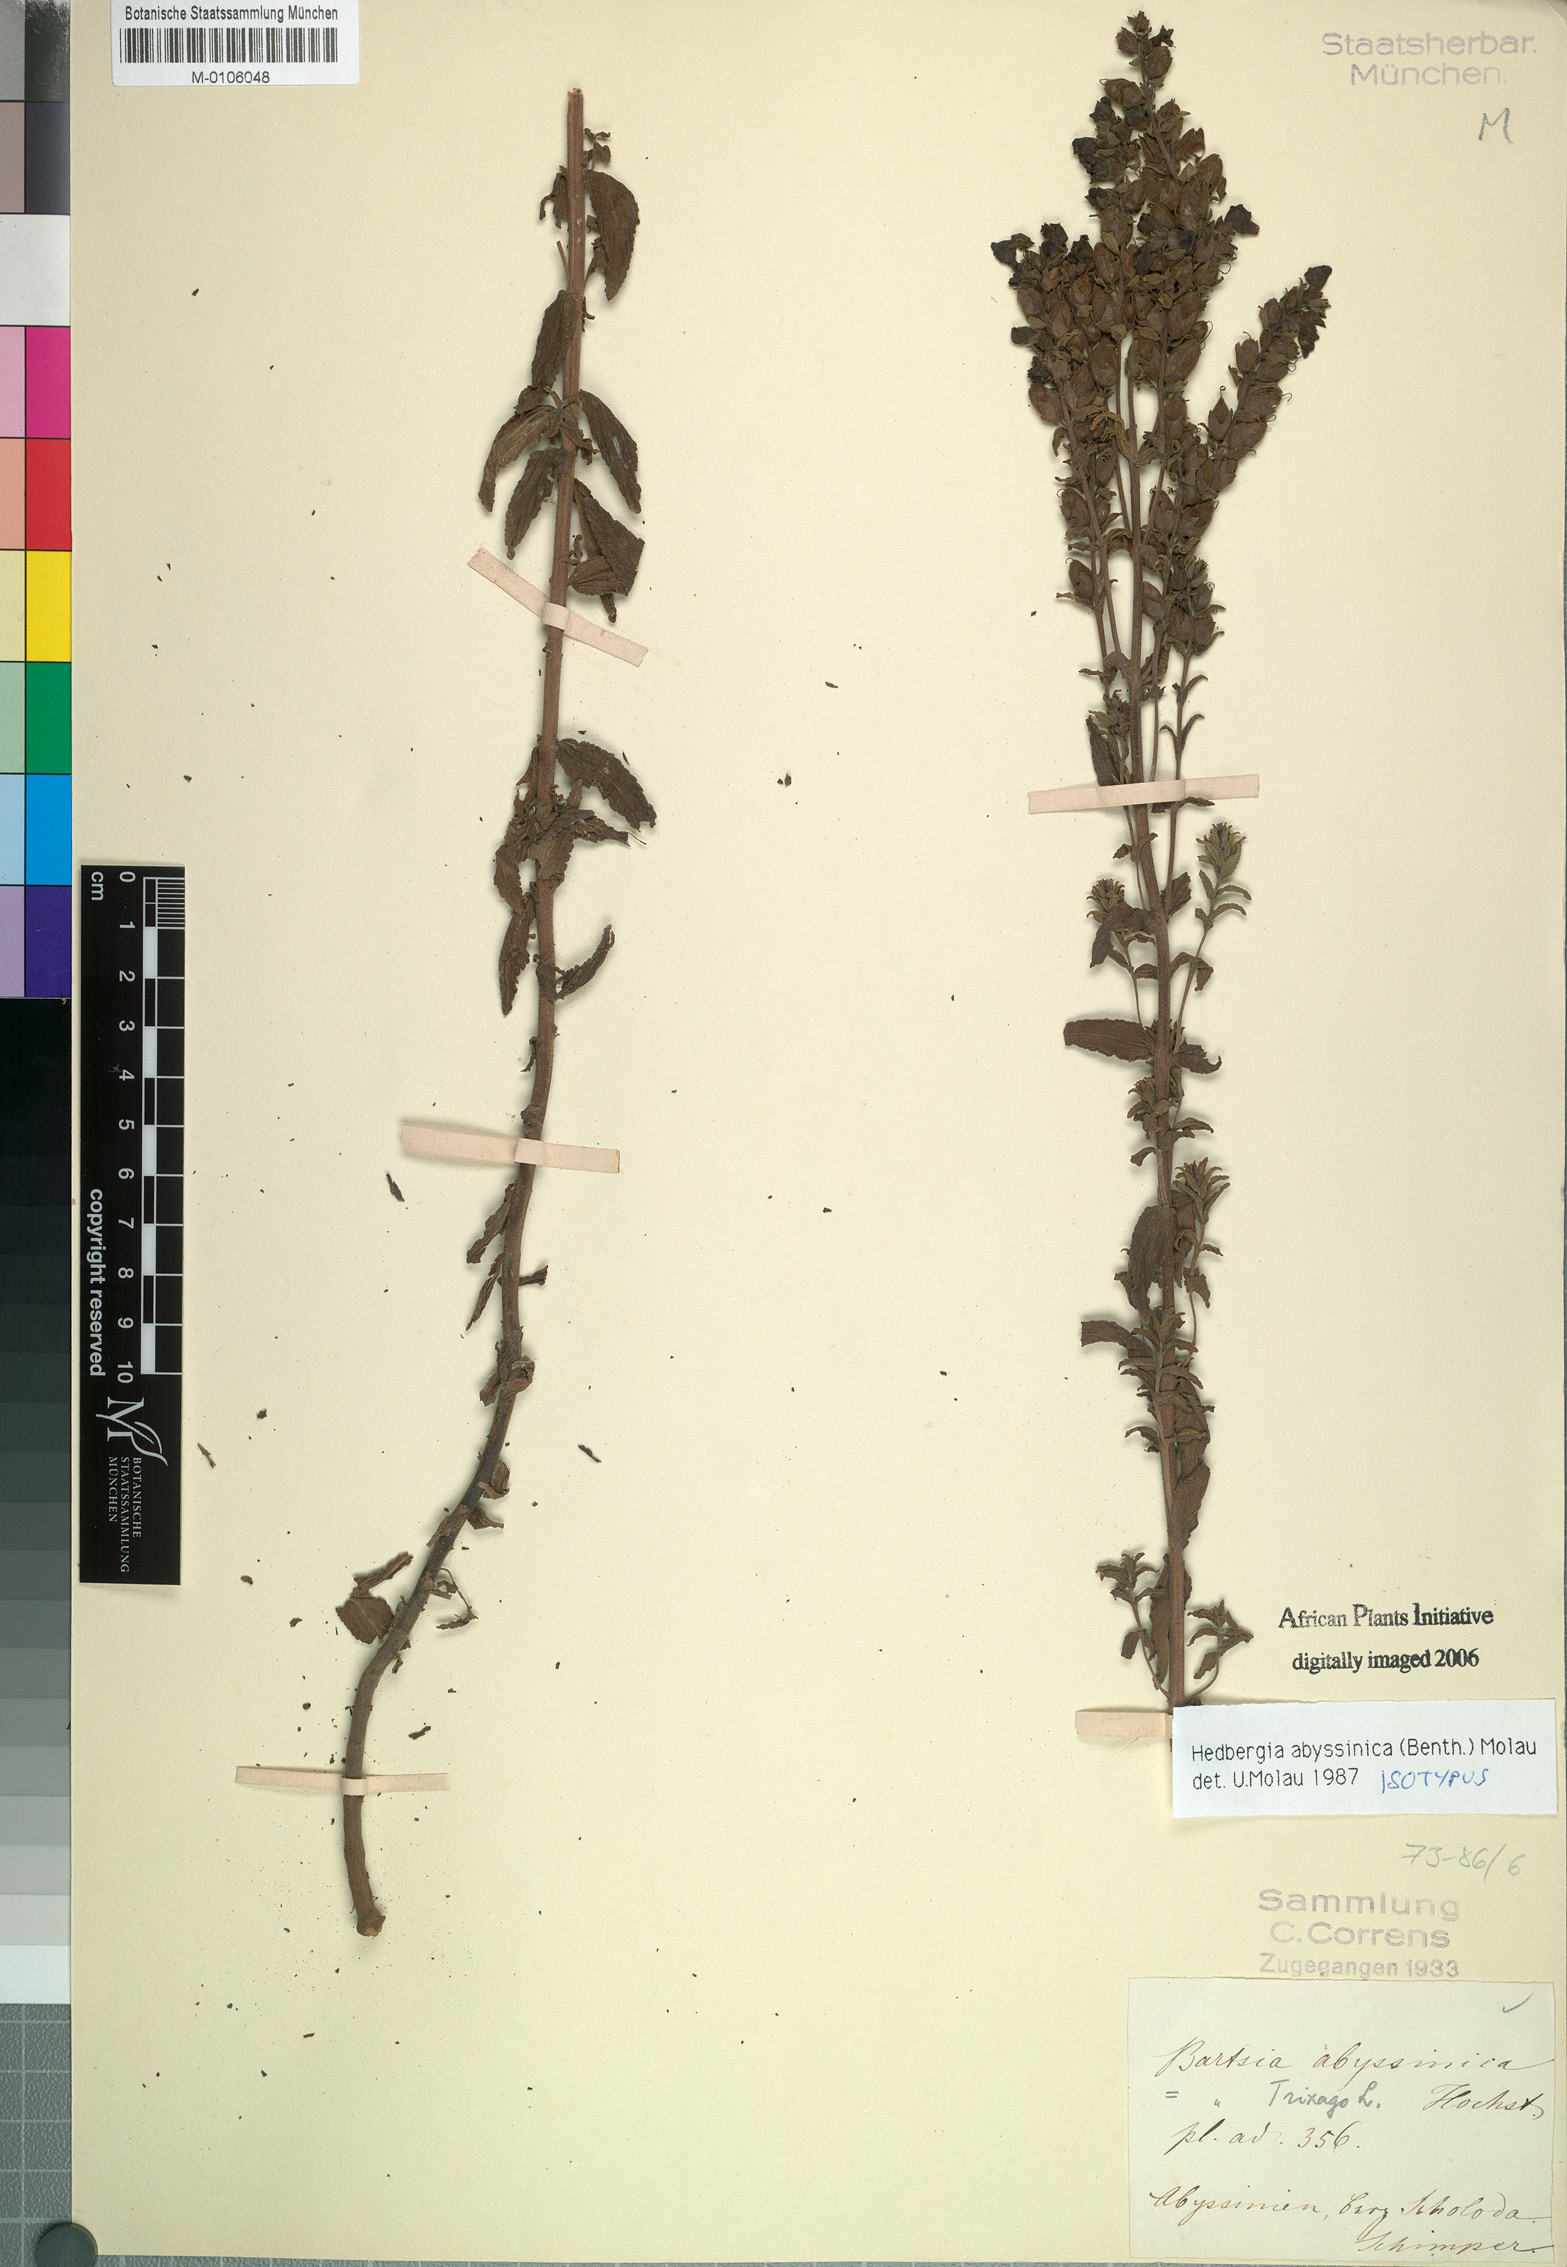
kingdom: Plantae
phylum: Tracheophyta
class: Magnoliopsida
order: Lamiales
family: Orobanchaceae
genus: Hedbergia
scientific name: Hedbergia abyssinica
